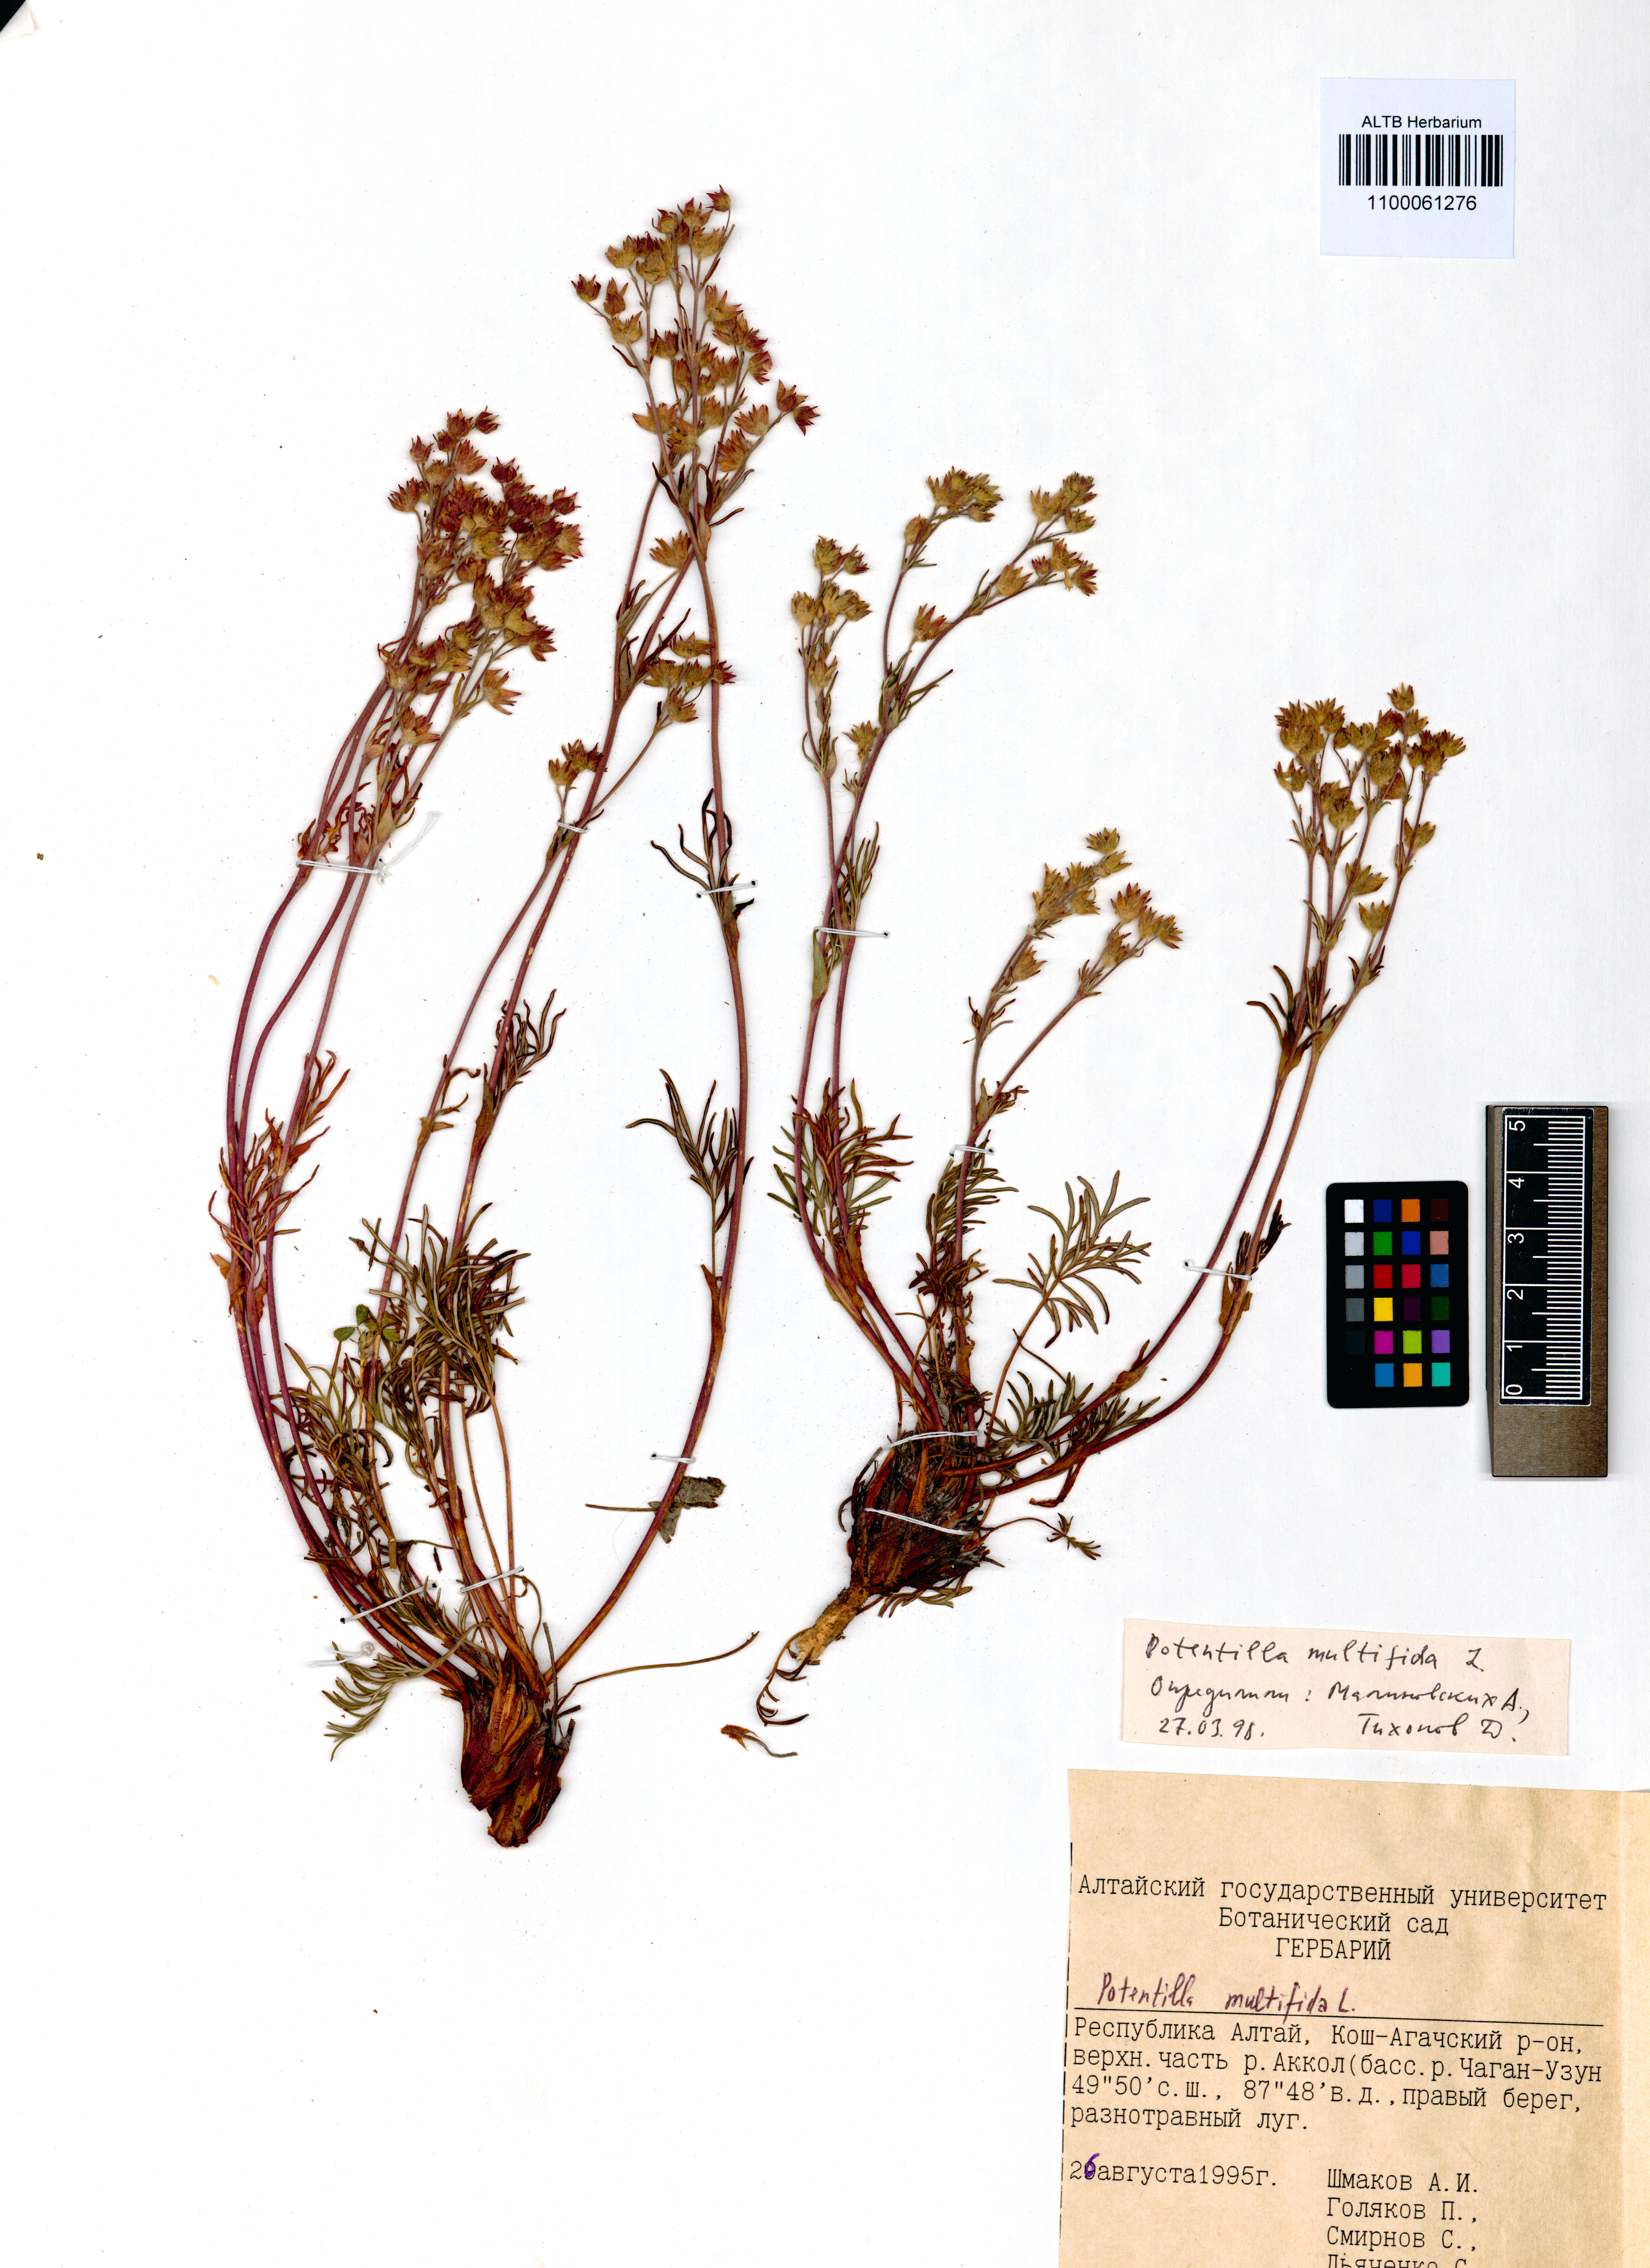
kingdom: Plantae
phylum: Tracheophyta
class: Magnoliopsida
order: Rosales
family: Rosaceae
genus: Potentilla
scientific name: Potentilla multifida
